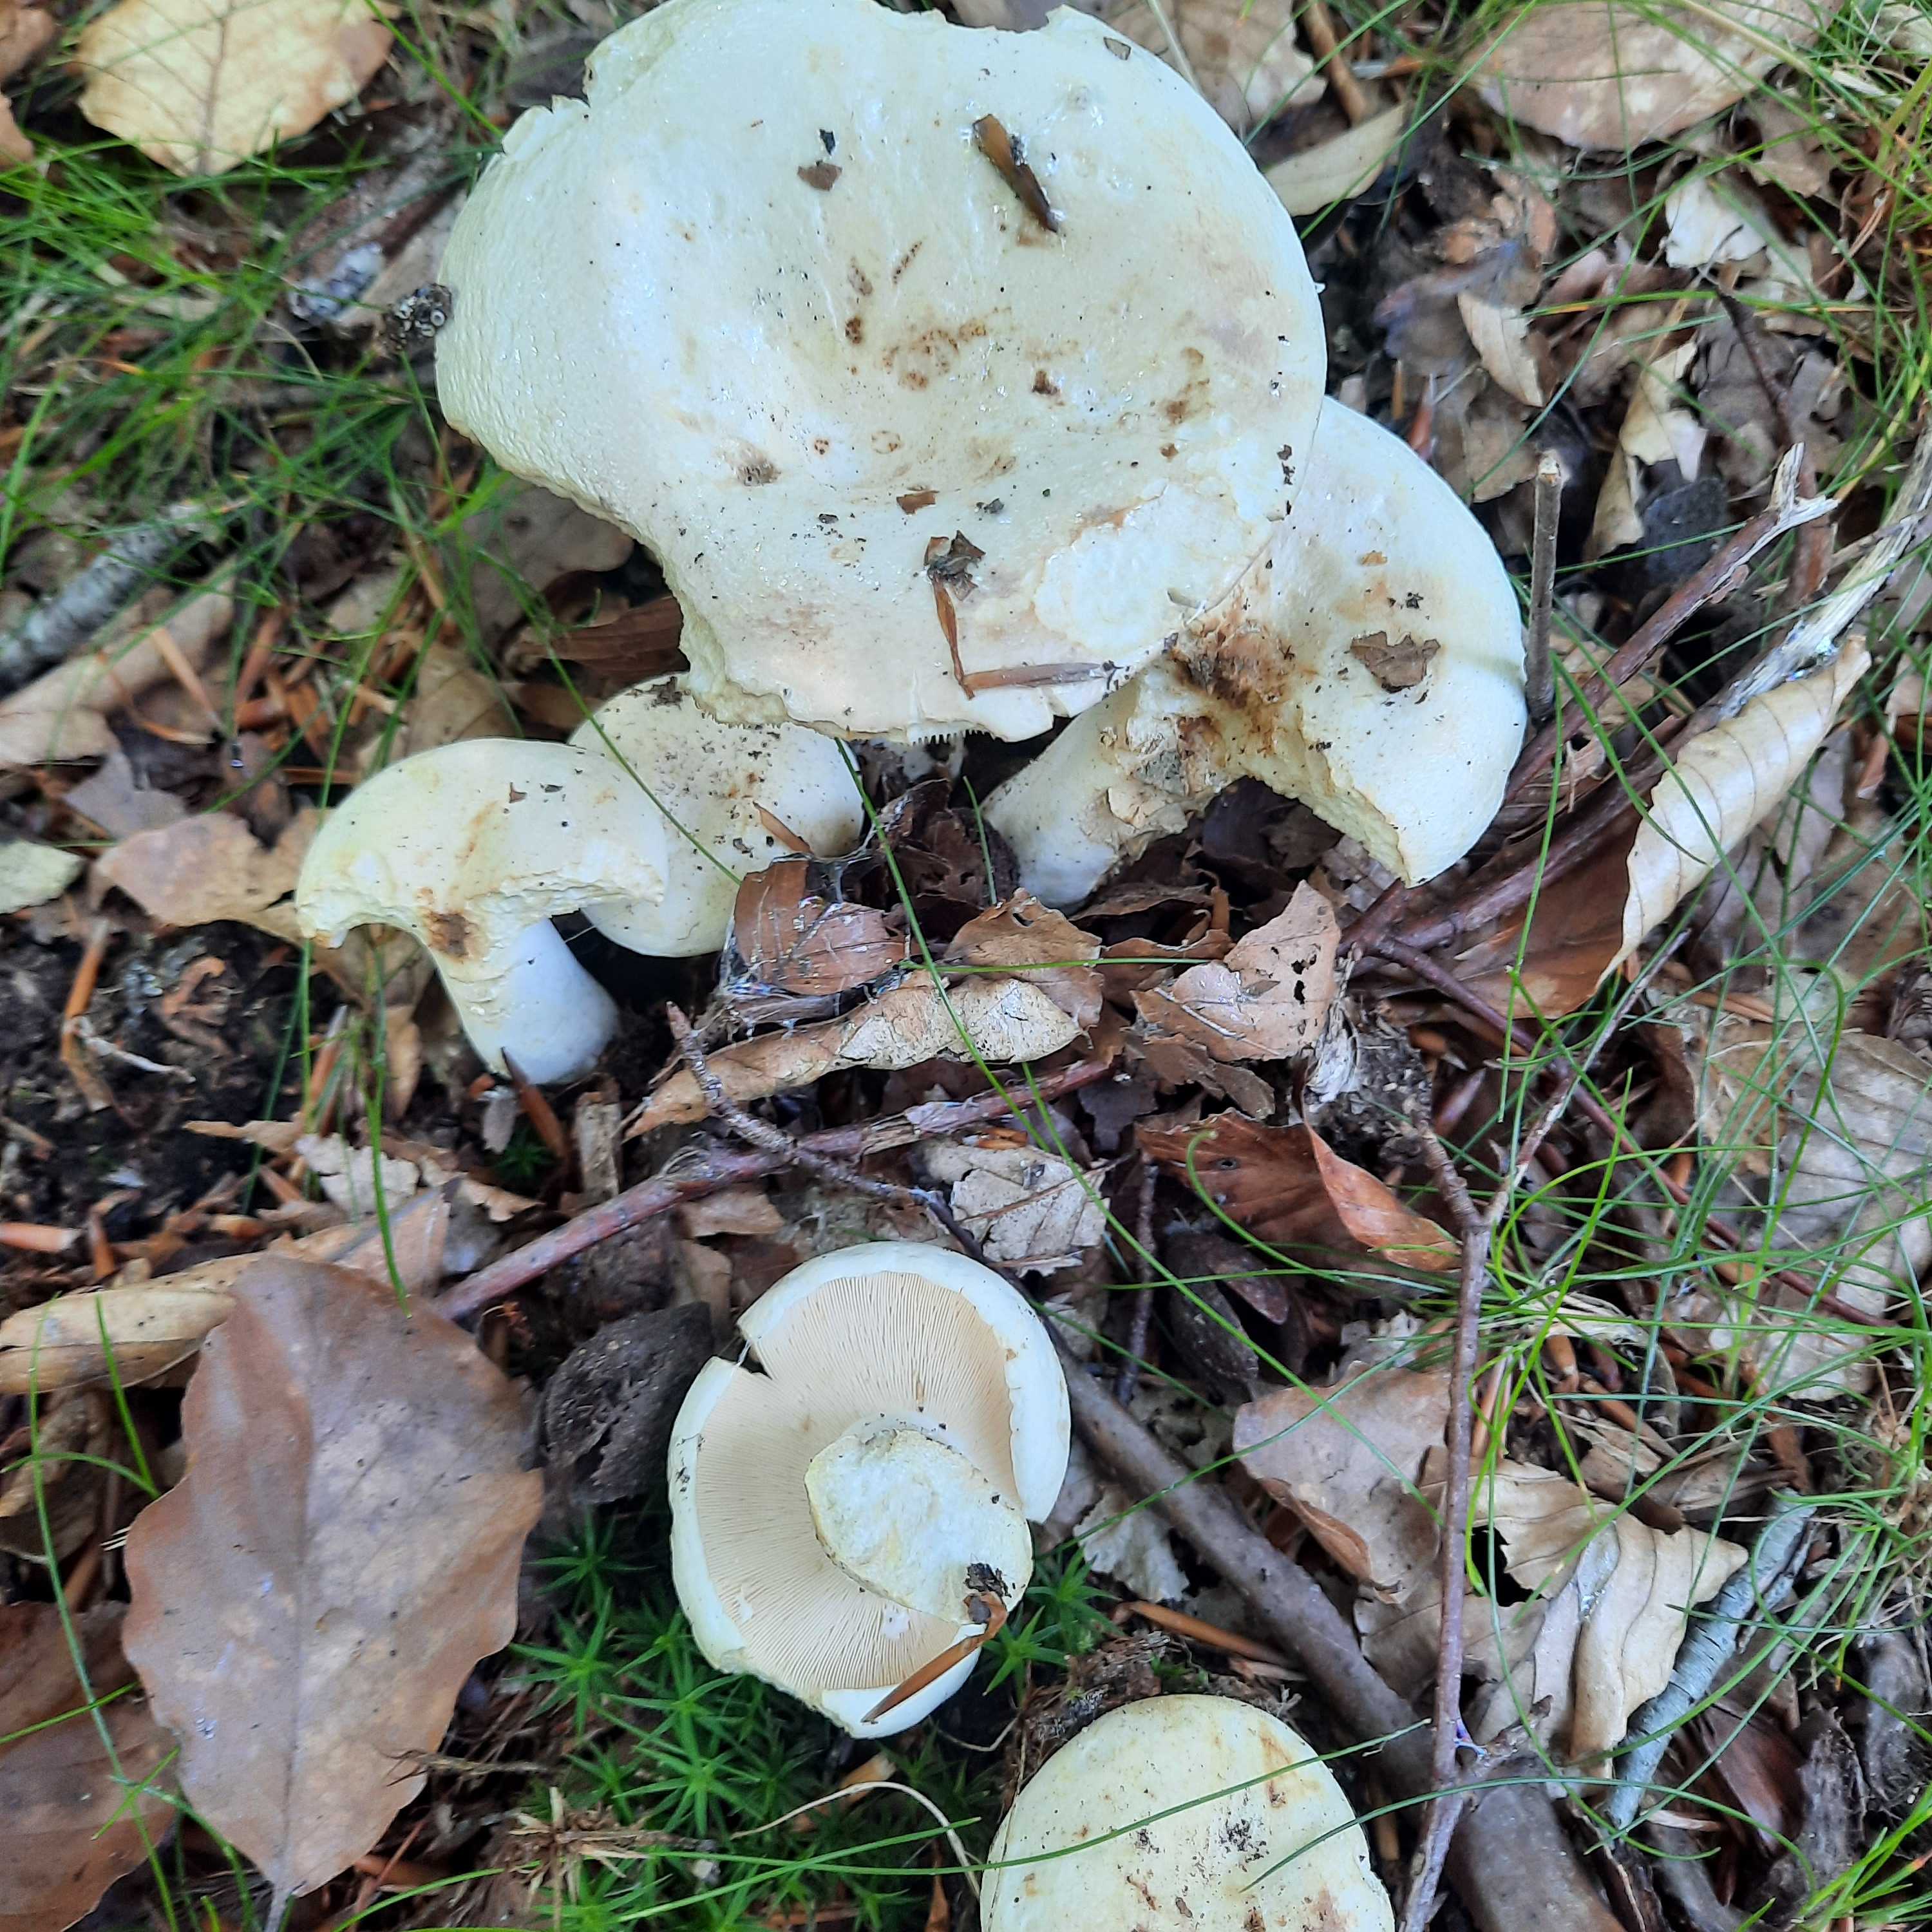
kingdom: Fungi
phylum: Basidiomycota
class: Agaricomycetes
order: Russulales
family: Russulaceae
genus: Lactifluus
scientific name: Lactifluus piperatus
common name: peber-mælkehat
